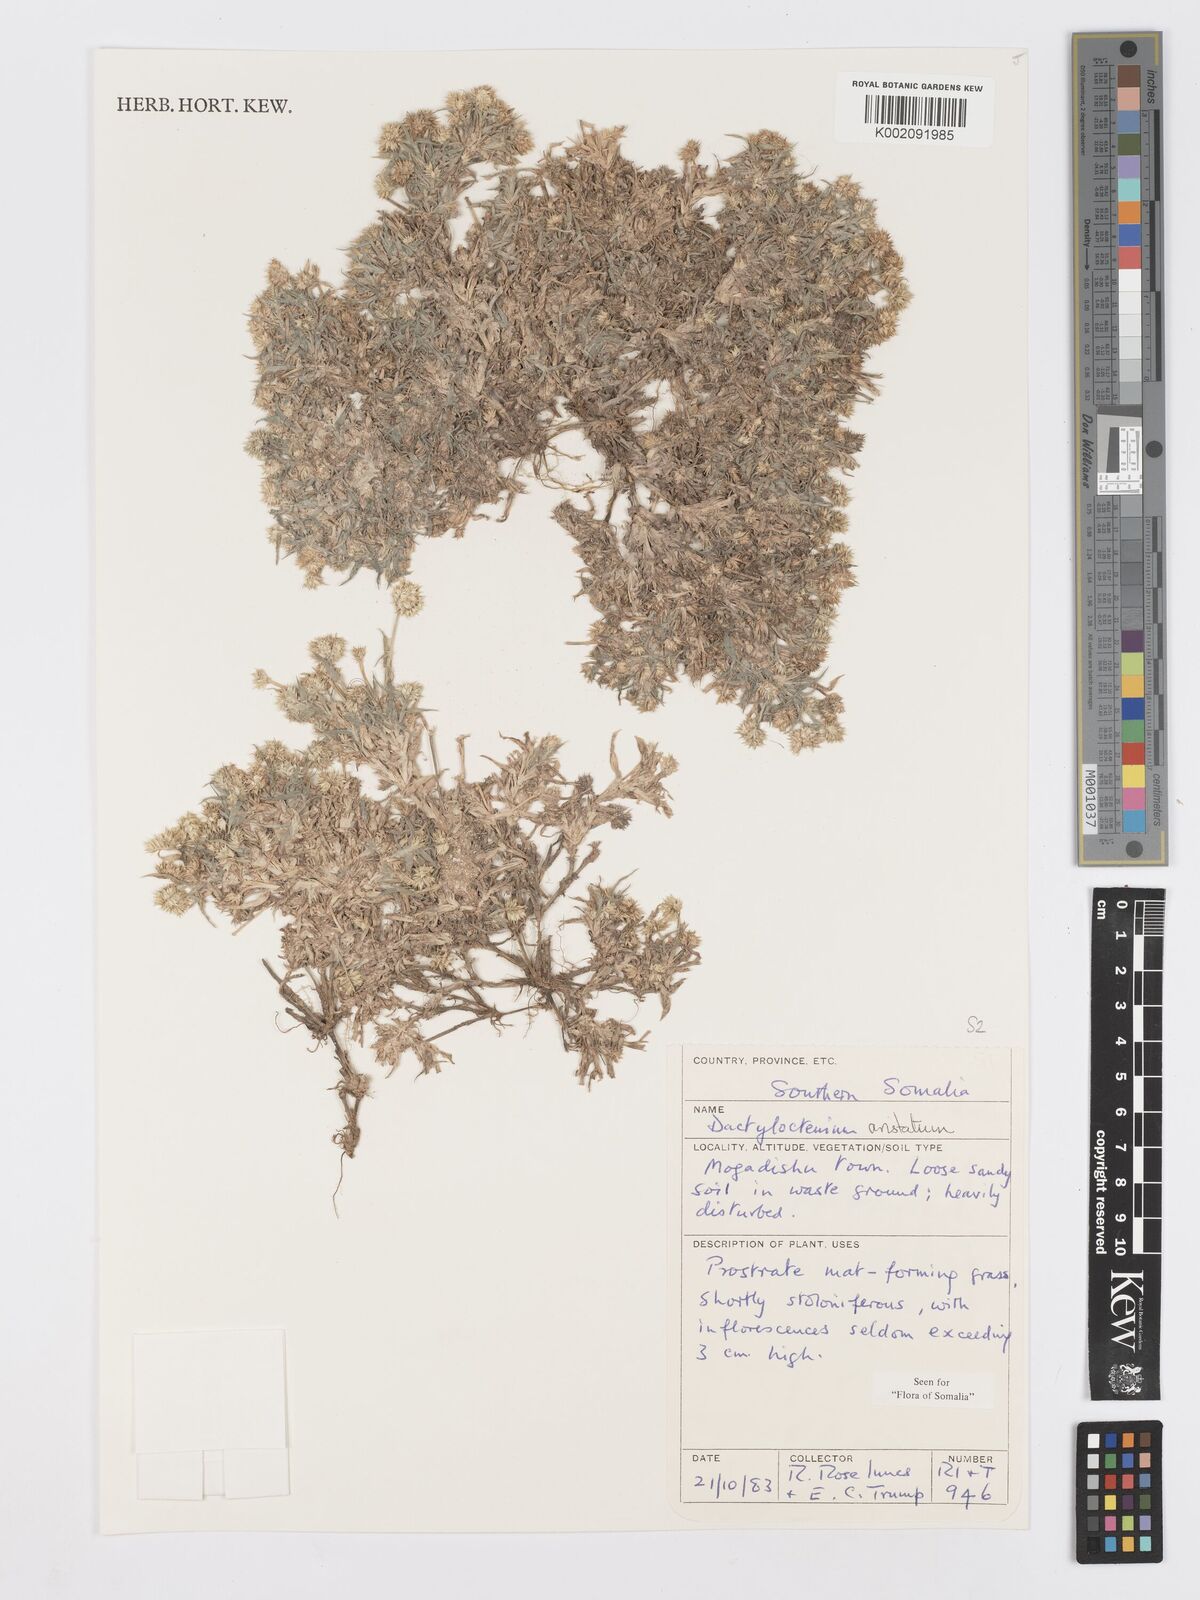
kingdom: Plantae
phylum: Tracheophyta
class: Liliopsida
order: Poales
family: Poaceae
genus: Dactyloctenium
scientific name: Dactyloctenium aristatum
